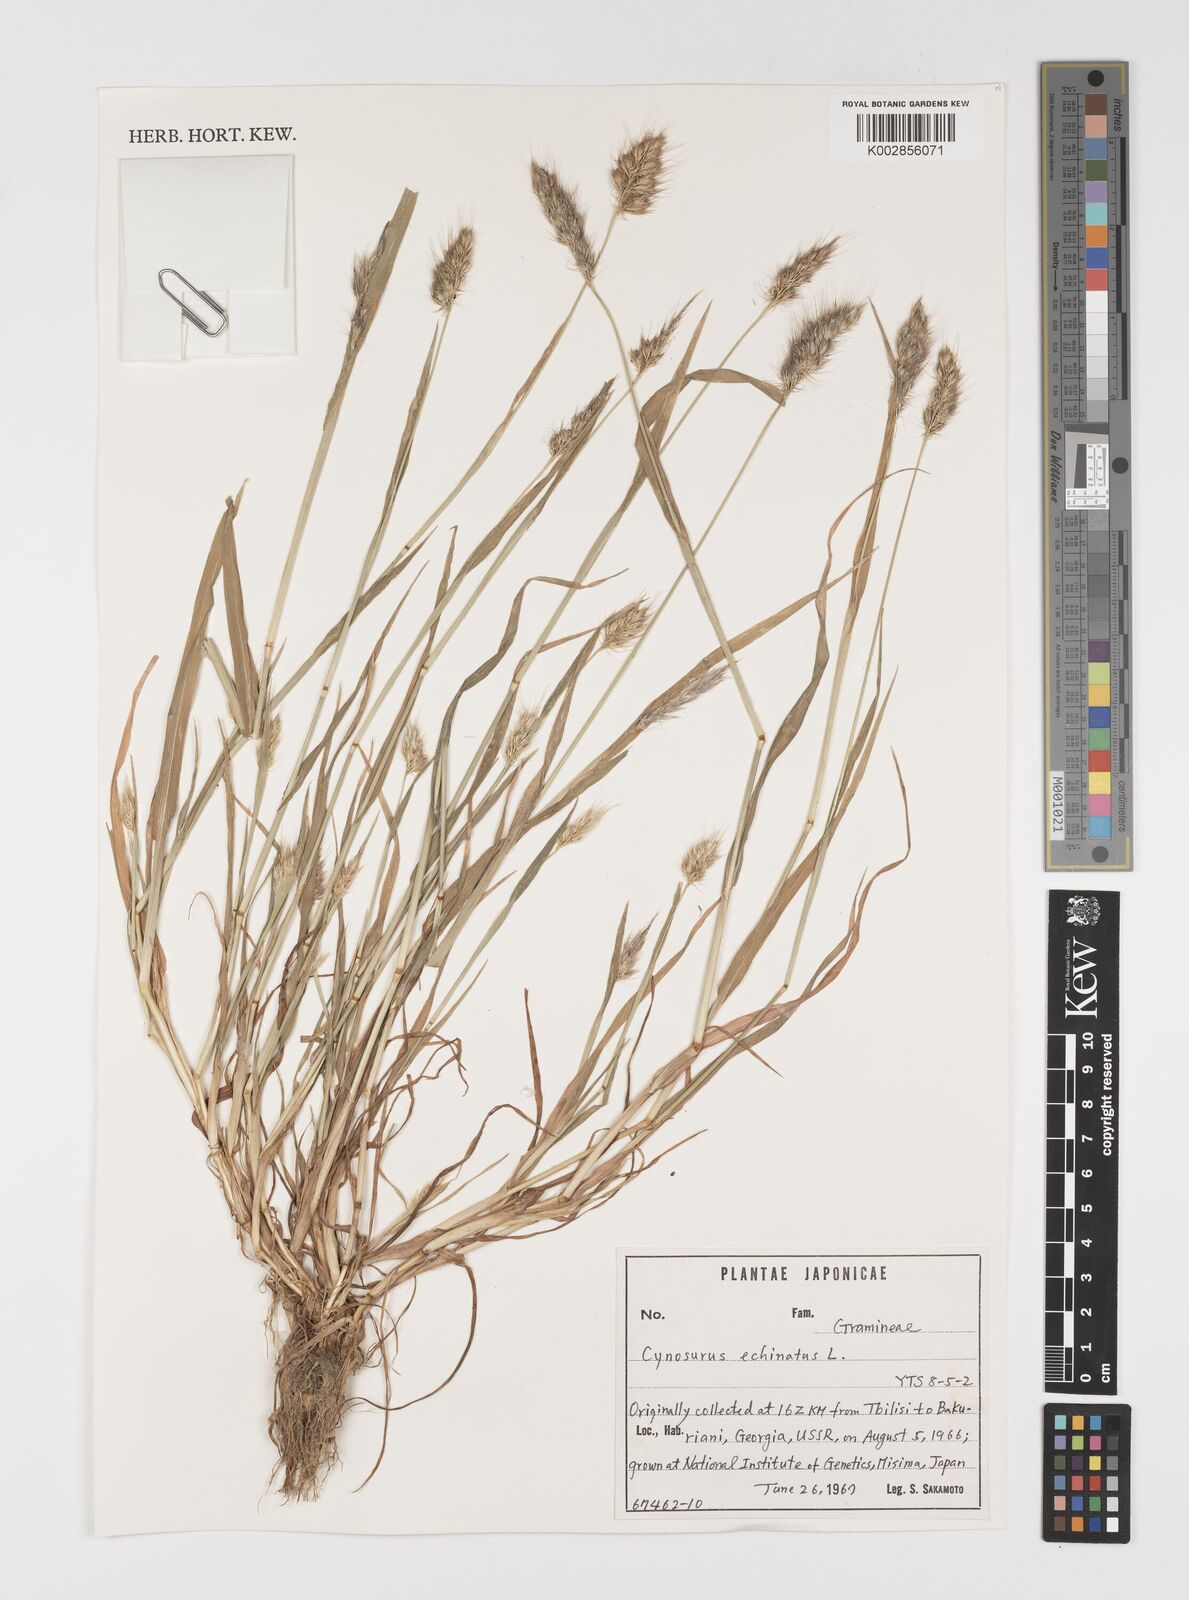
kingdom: Plantae
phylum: Tracheophyta
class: Liliopsida
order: Poales
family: Poaceae
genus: Cynosurus
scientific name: Cynosurus echinatus
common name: Rough dog's-tail
